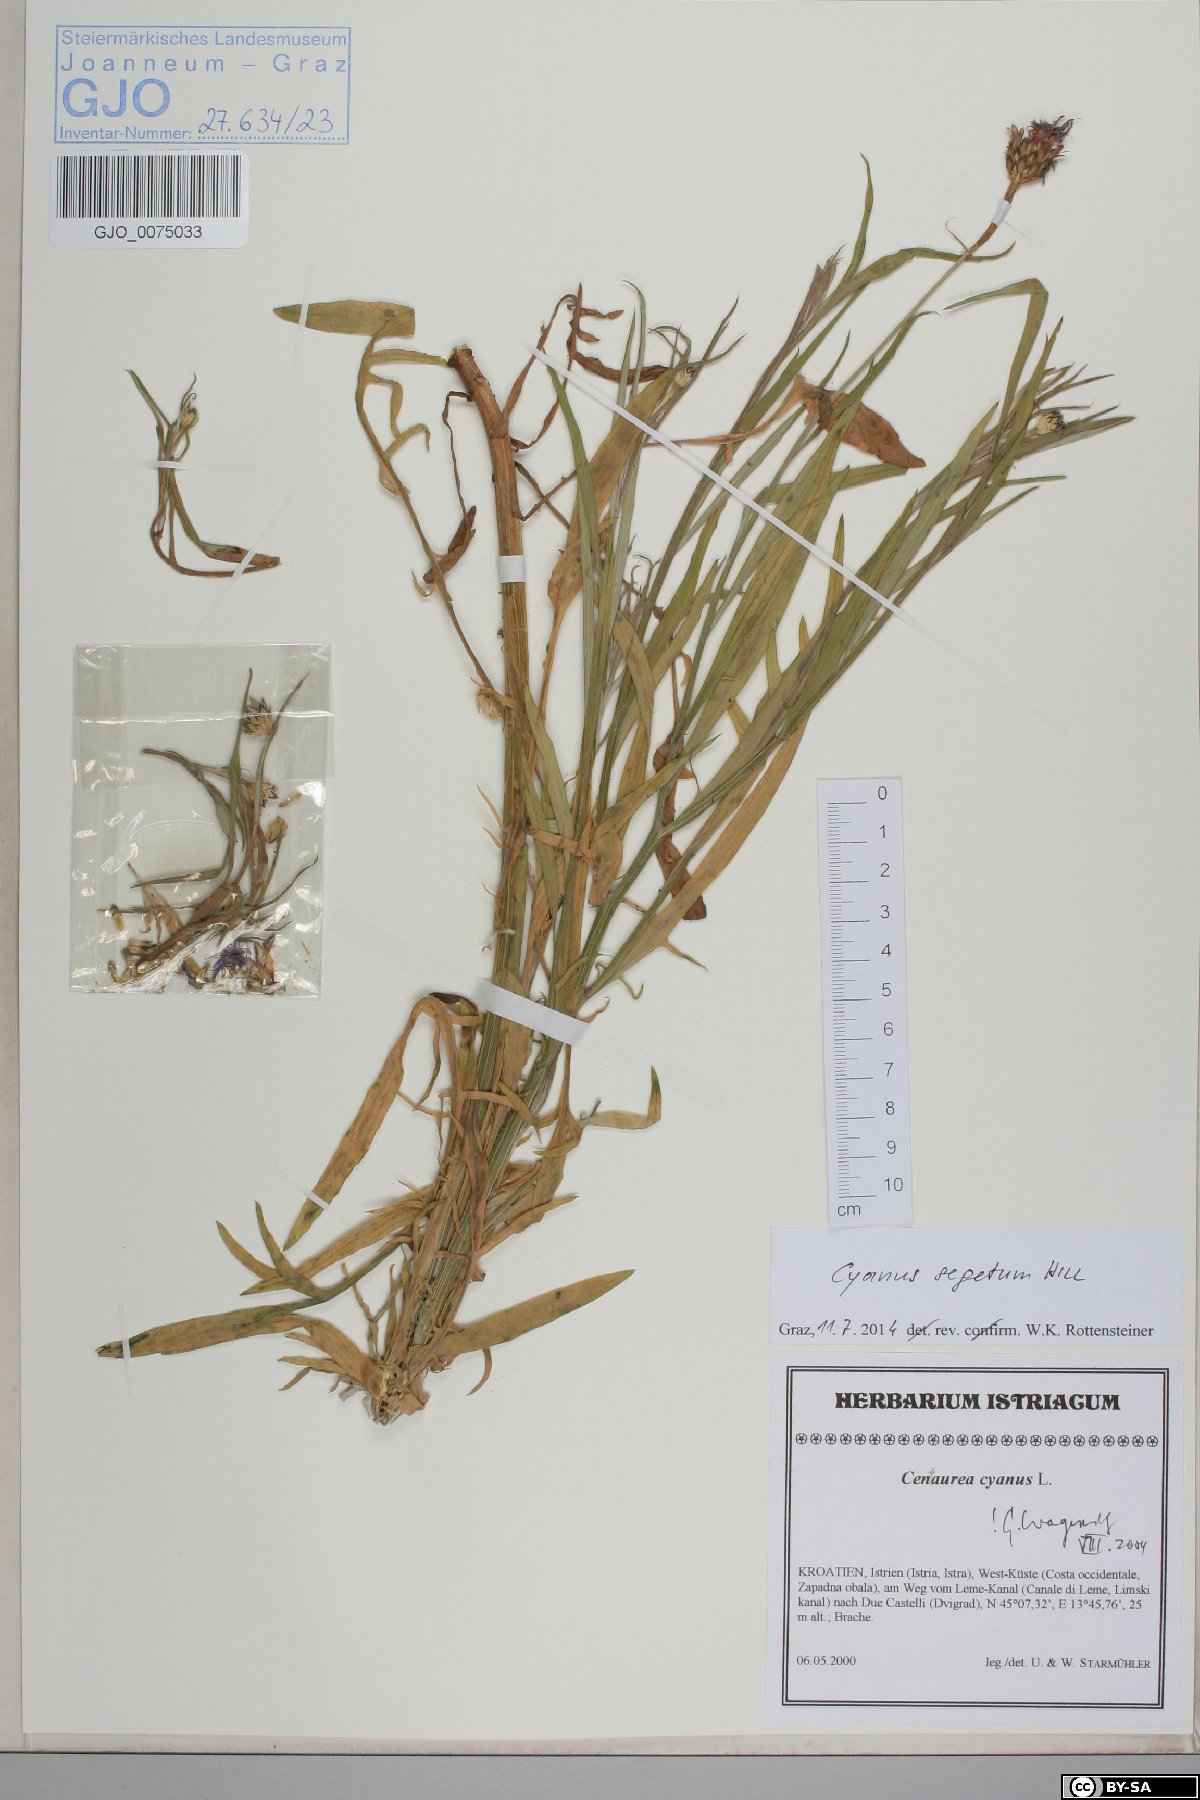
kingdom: Plantae
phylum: Tracheophyta
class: Magnoliopsida
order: Asterales
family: Asteraceae
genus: Centaurea
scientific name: Centaurea cyanus
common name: Cornflower
